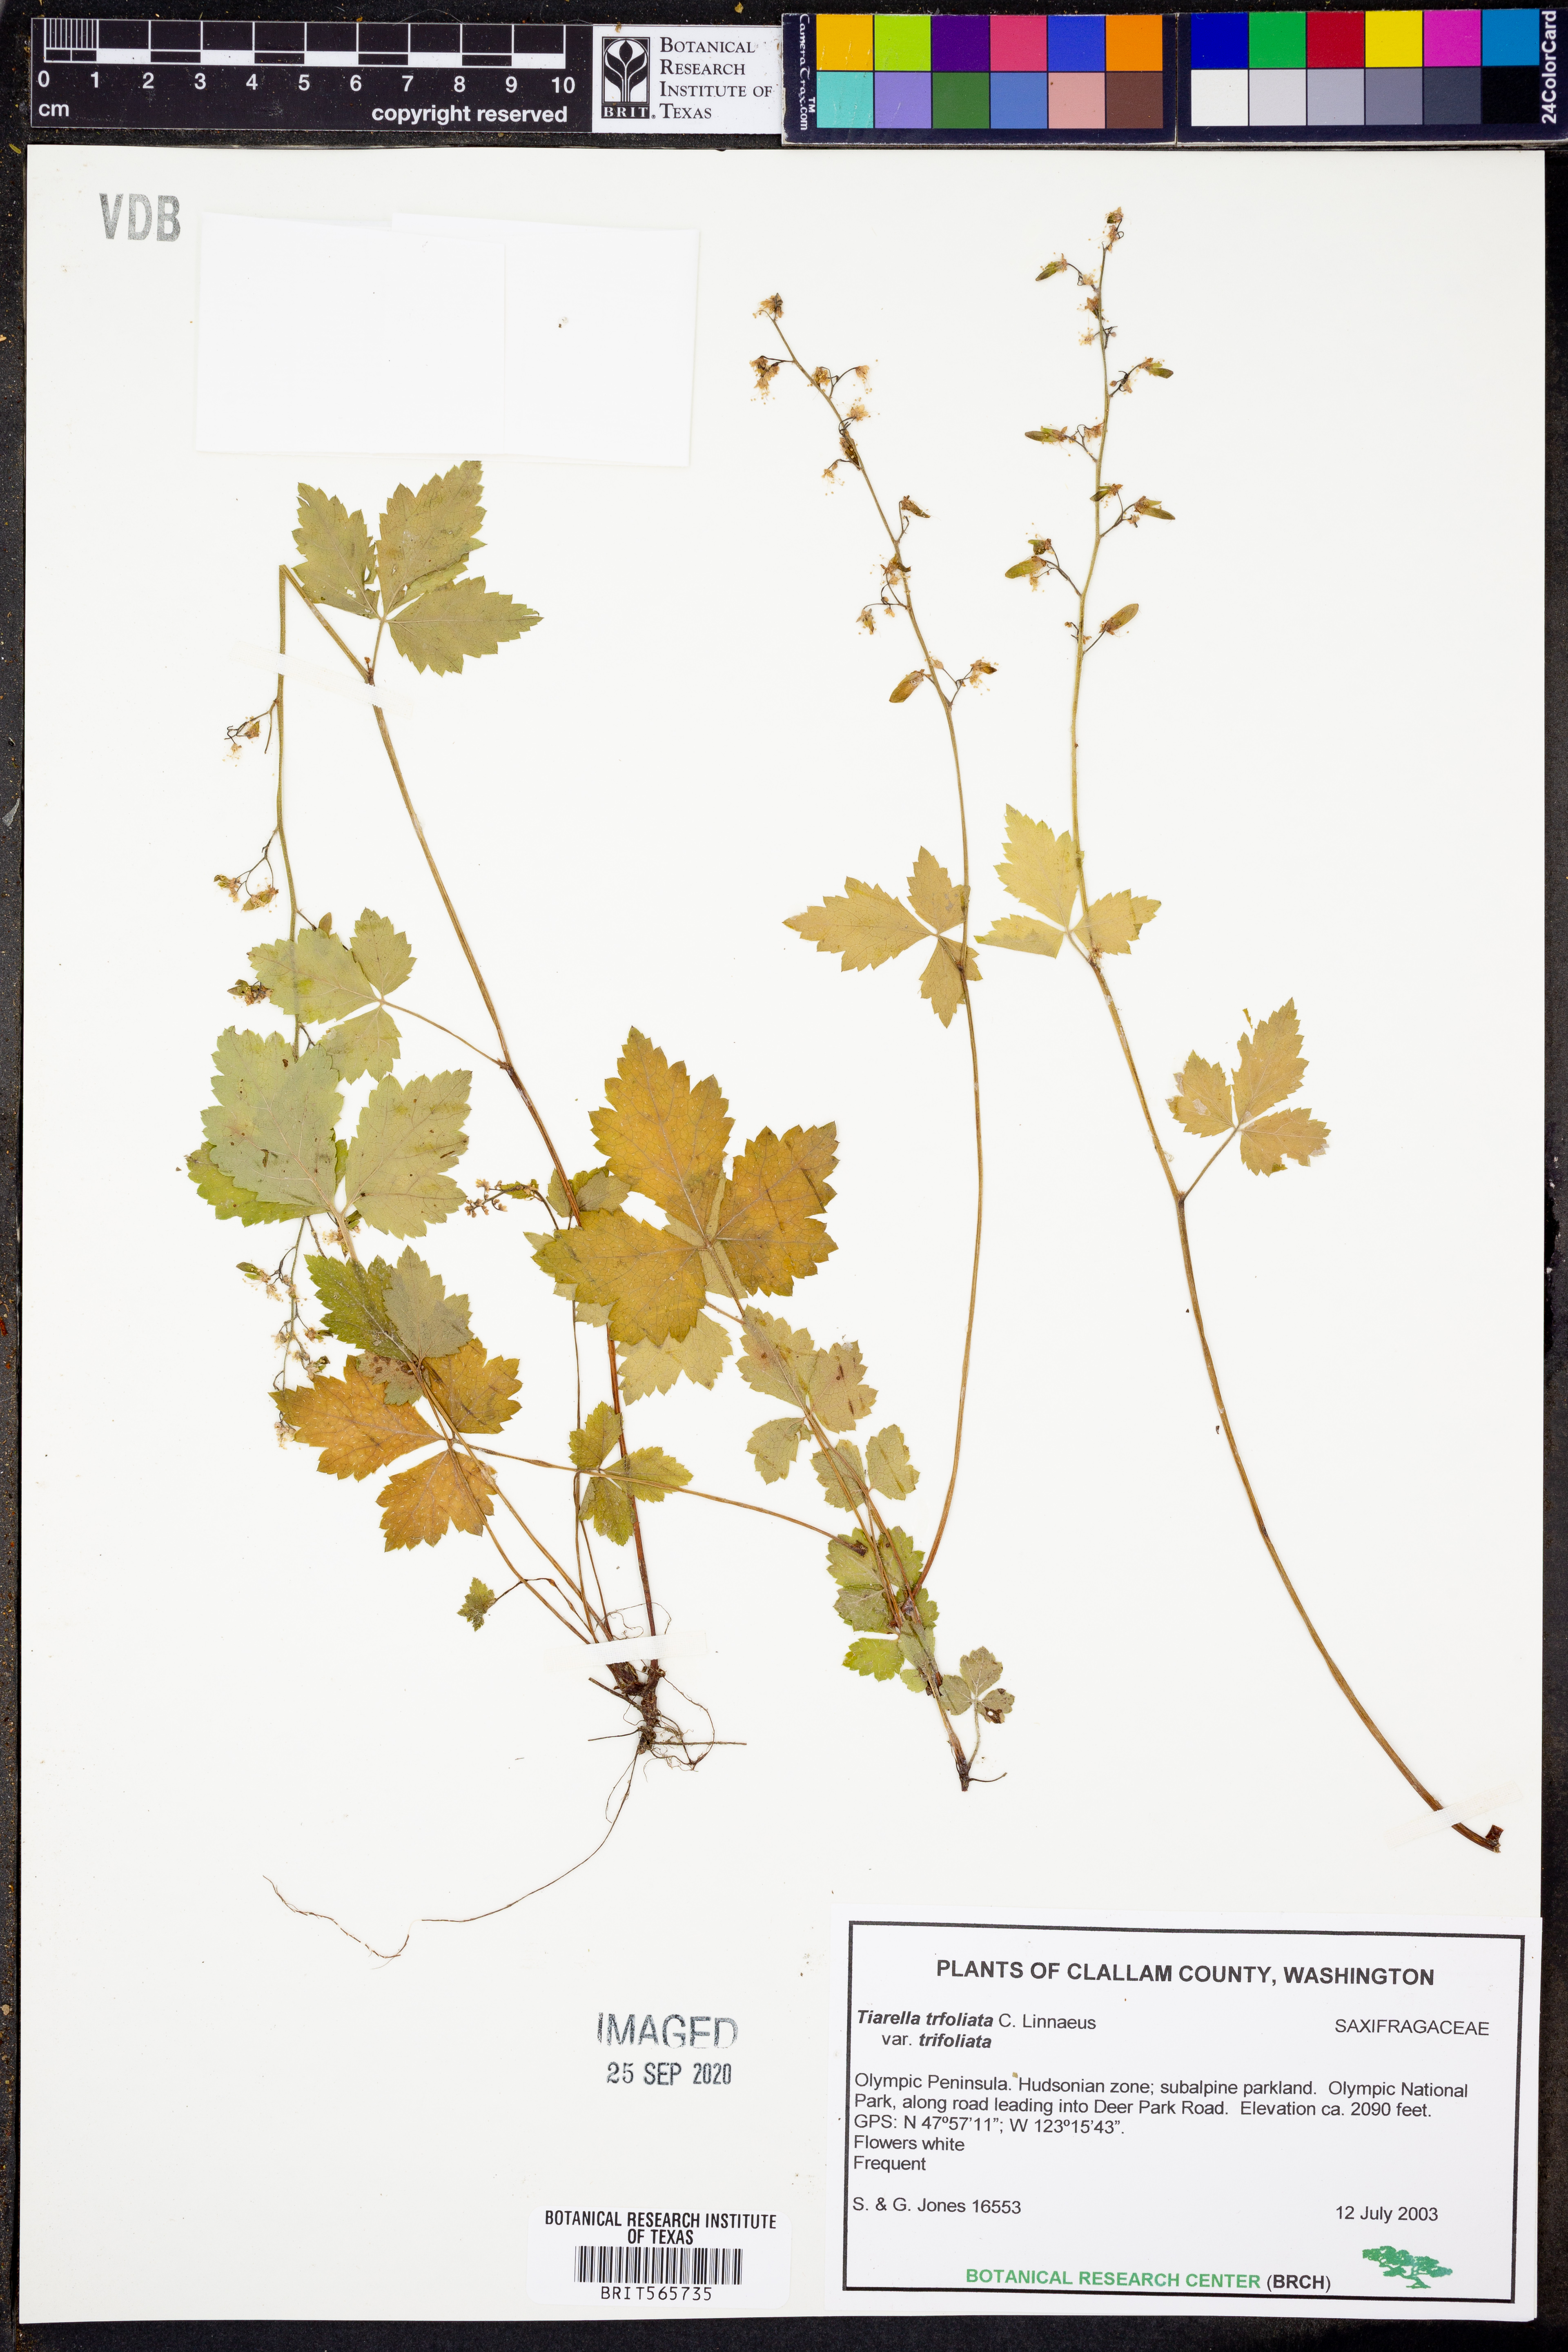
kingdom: Plantae
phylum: Tracheophyta
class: Magnoliopsida
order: Saxifragales
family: Saxifragaceae
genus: Tiarella
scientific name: Tiarella trifoliata
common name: Sugar-scoop
